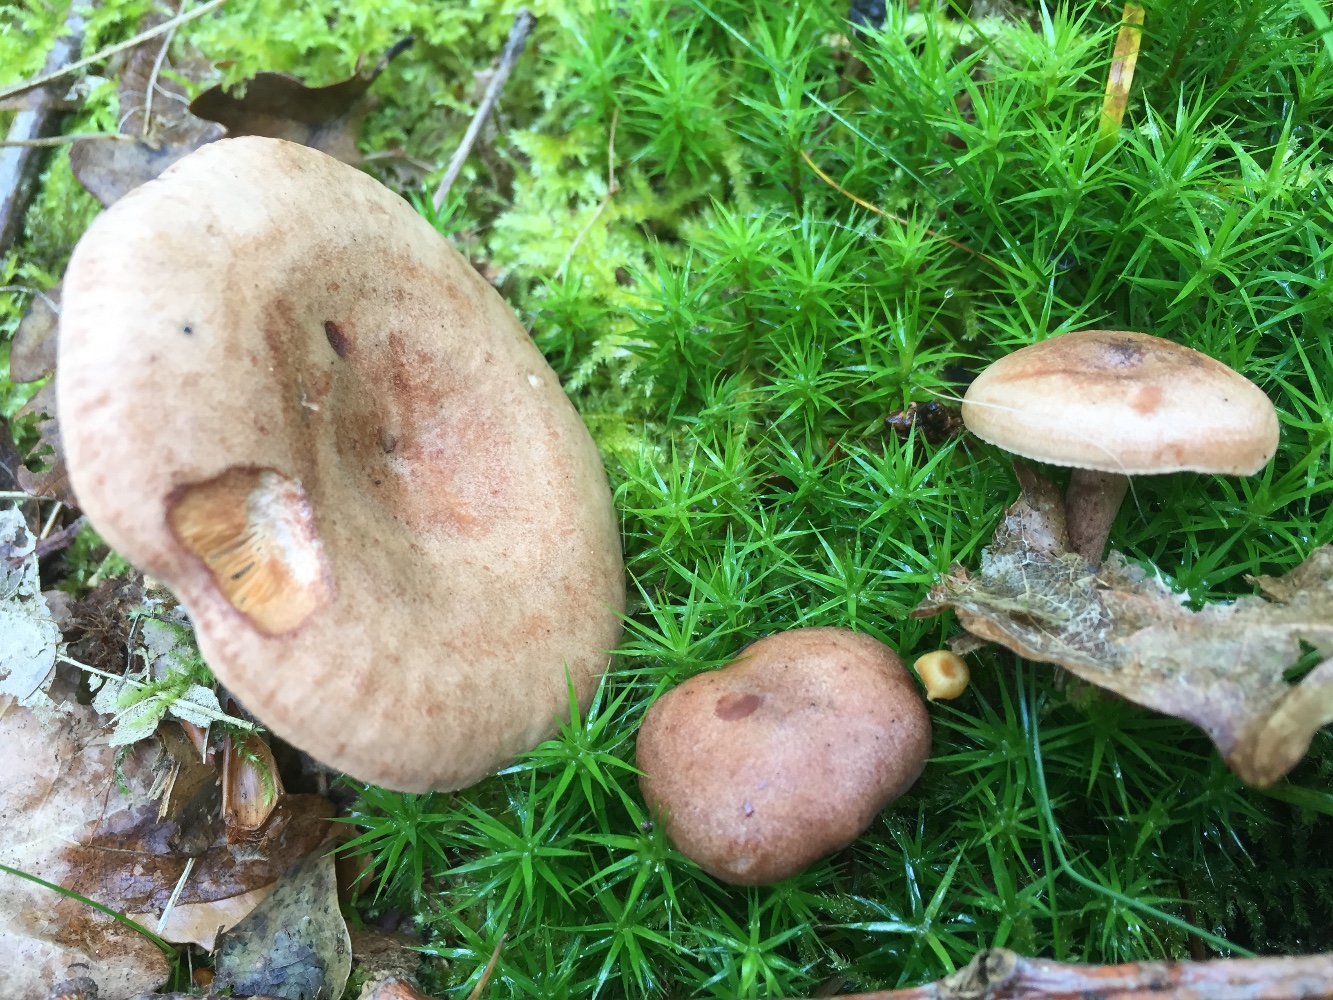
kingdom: Fungi
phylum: Basidiomycota
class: Agaricomycetes
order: Russulales
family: Russulaceae
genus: Lactarius
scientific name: Lactarius quietus
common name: ege-mælkehat
